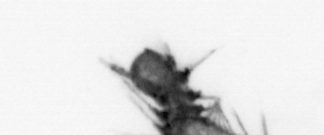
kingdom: Animalia
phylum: Annelida
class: Polychaeta
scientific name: Polychaeta
